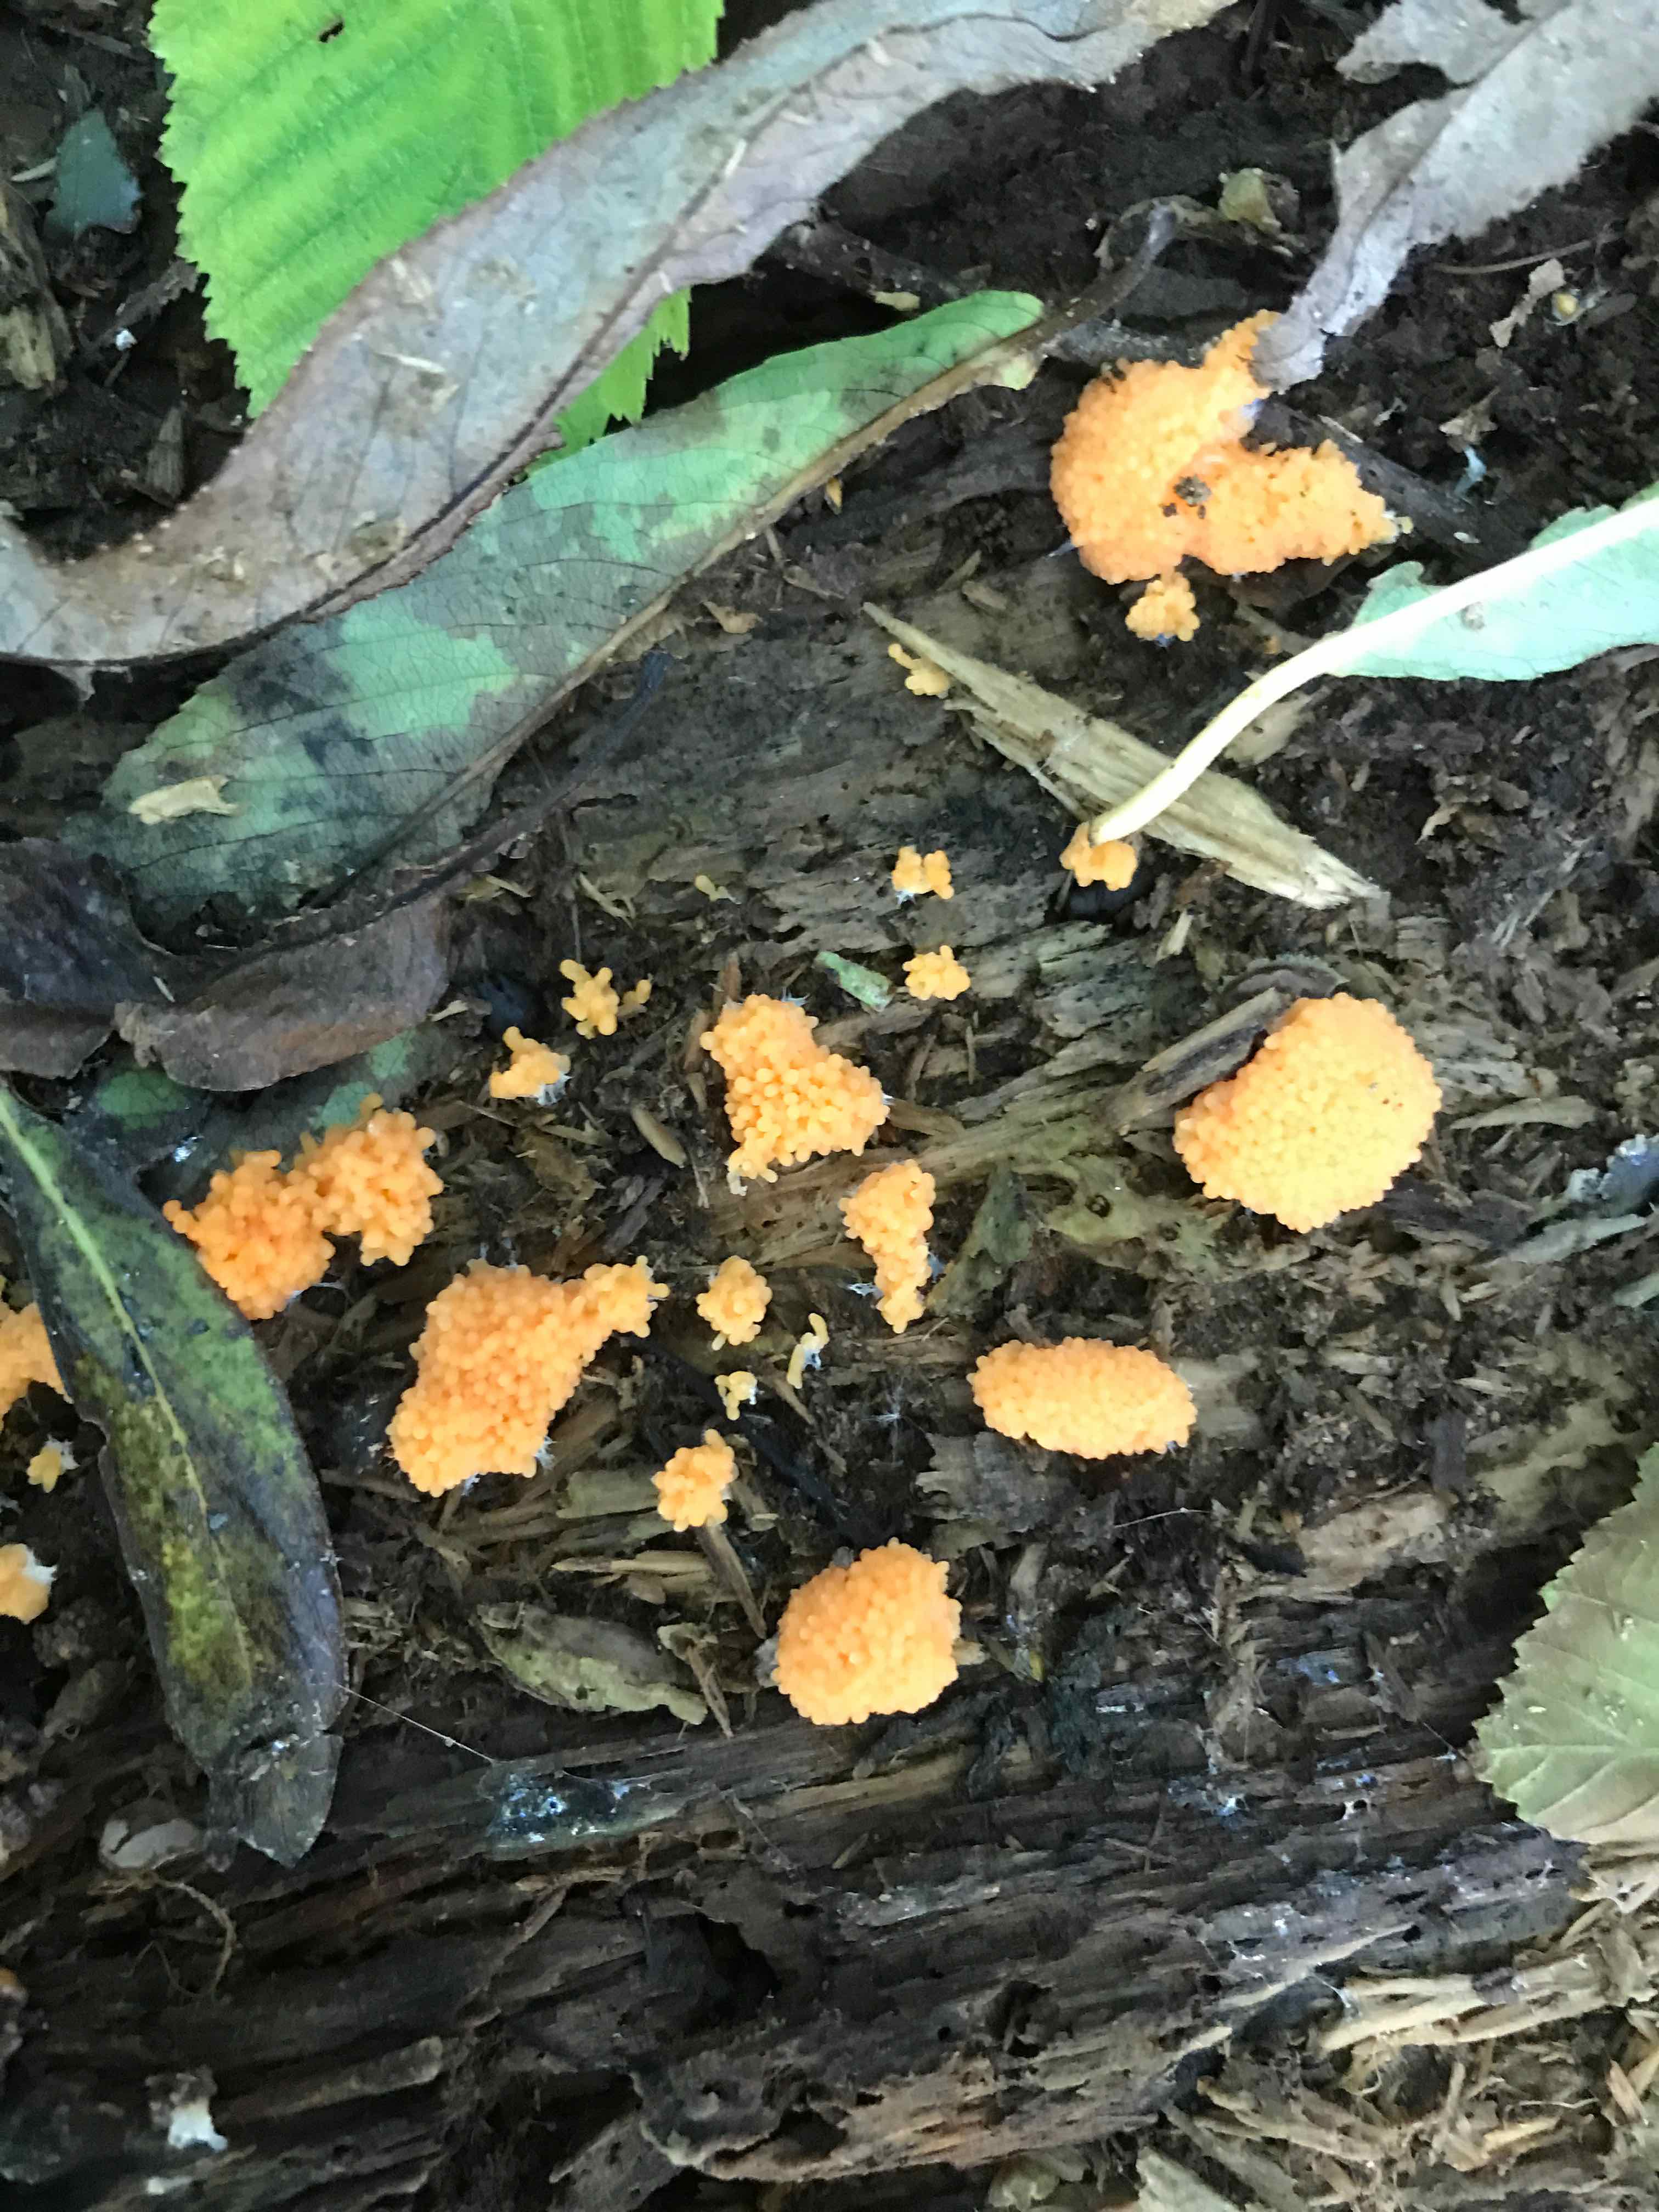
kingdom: Protozoa
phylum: Mycetozoa
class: Myxomycetes
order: Cribrariales
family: Tubiferaceae
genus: Tubifera
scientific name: Tubifera ferruginosa
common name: kanel-støvrør
